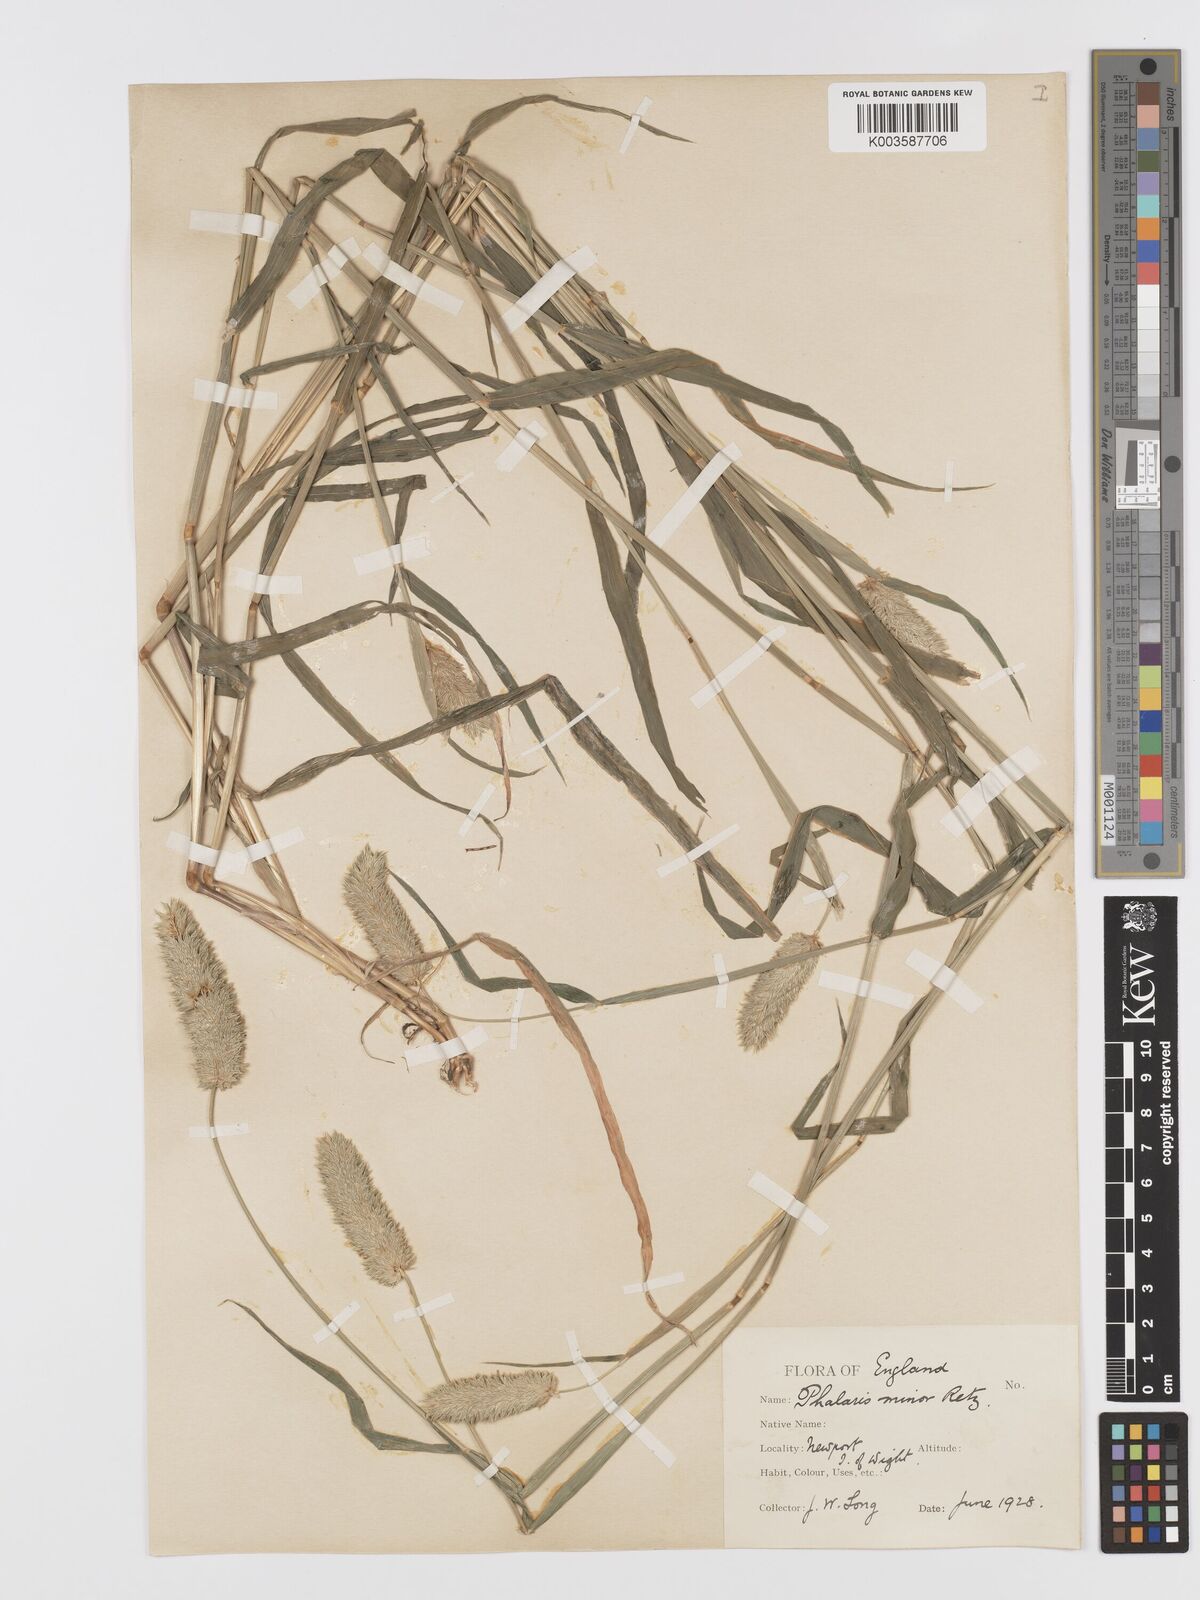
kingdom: Plantae
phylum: Tracheophyta
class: Liliopsida
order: Poales
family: Poaceae
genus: Phalaris
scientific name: Phalaris minor
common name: Littleseed canarygrass
